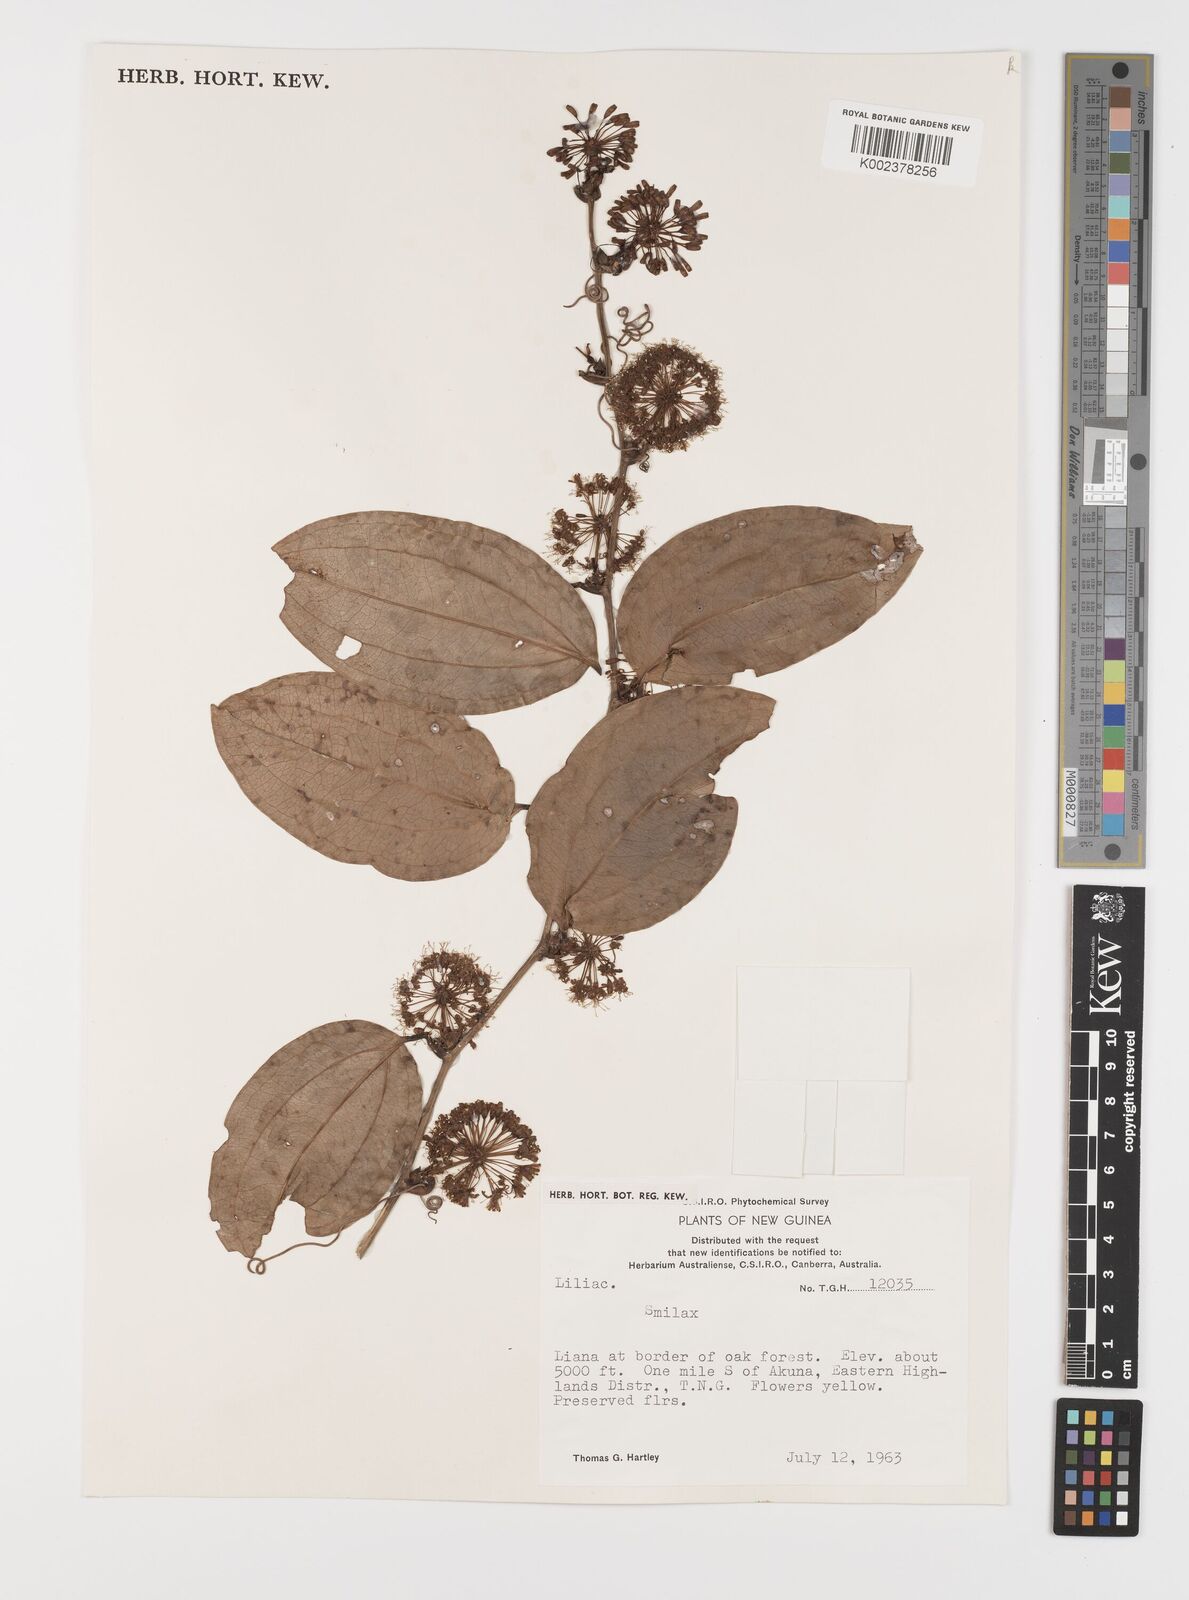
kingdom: Plantae
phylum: Tracheophyta
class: Liliopsida
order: Liliales
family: Smilacaceae
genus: Smilax
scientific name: Smilax
